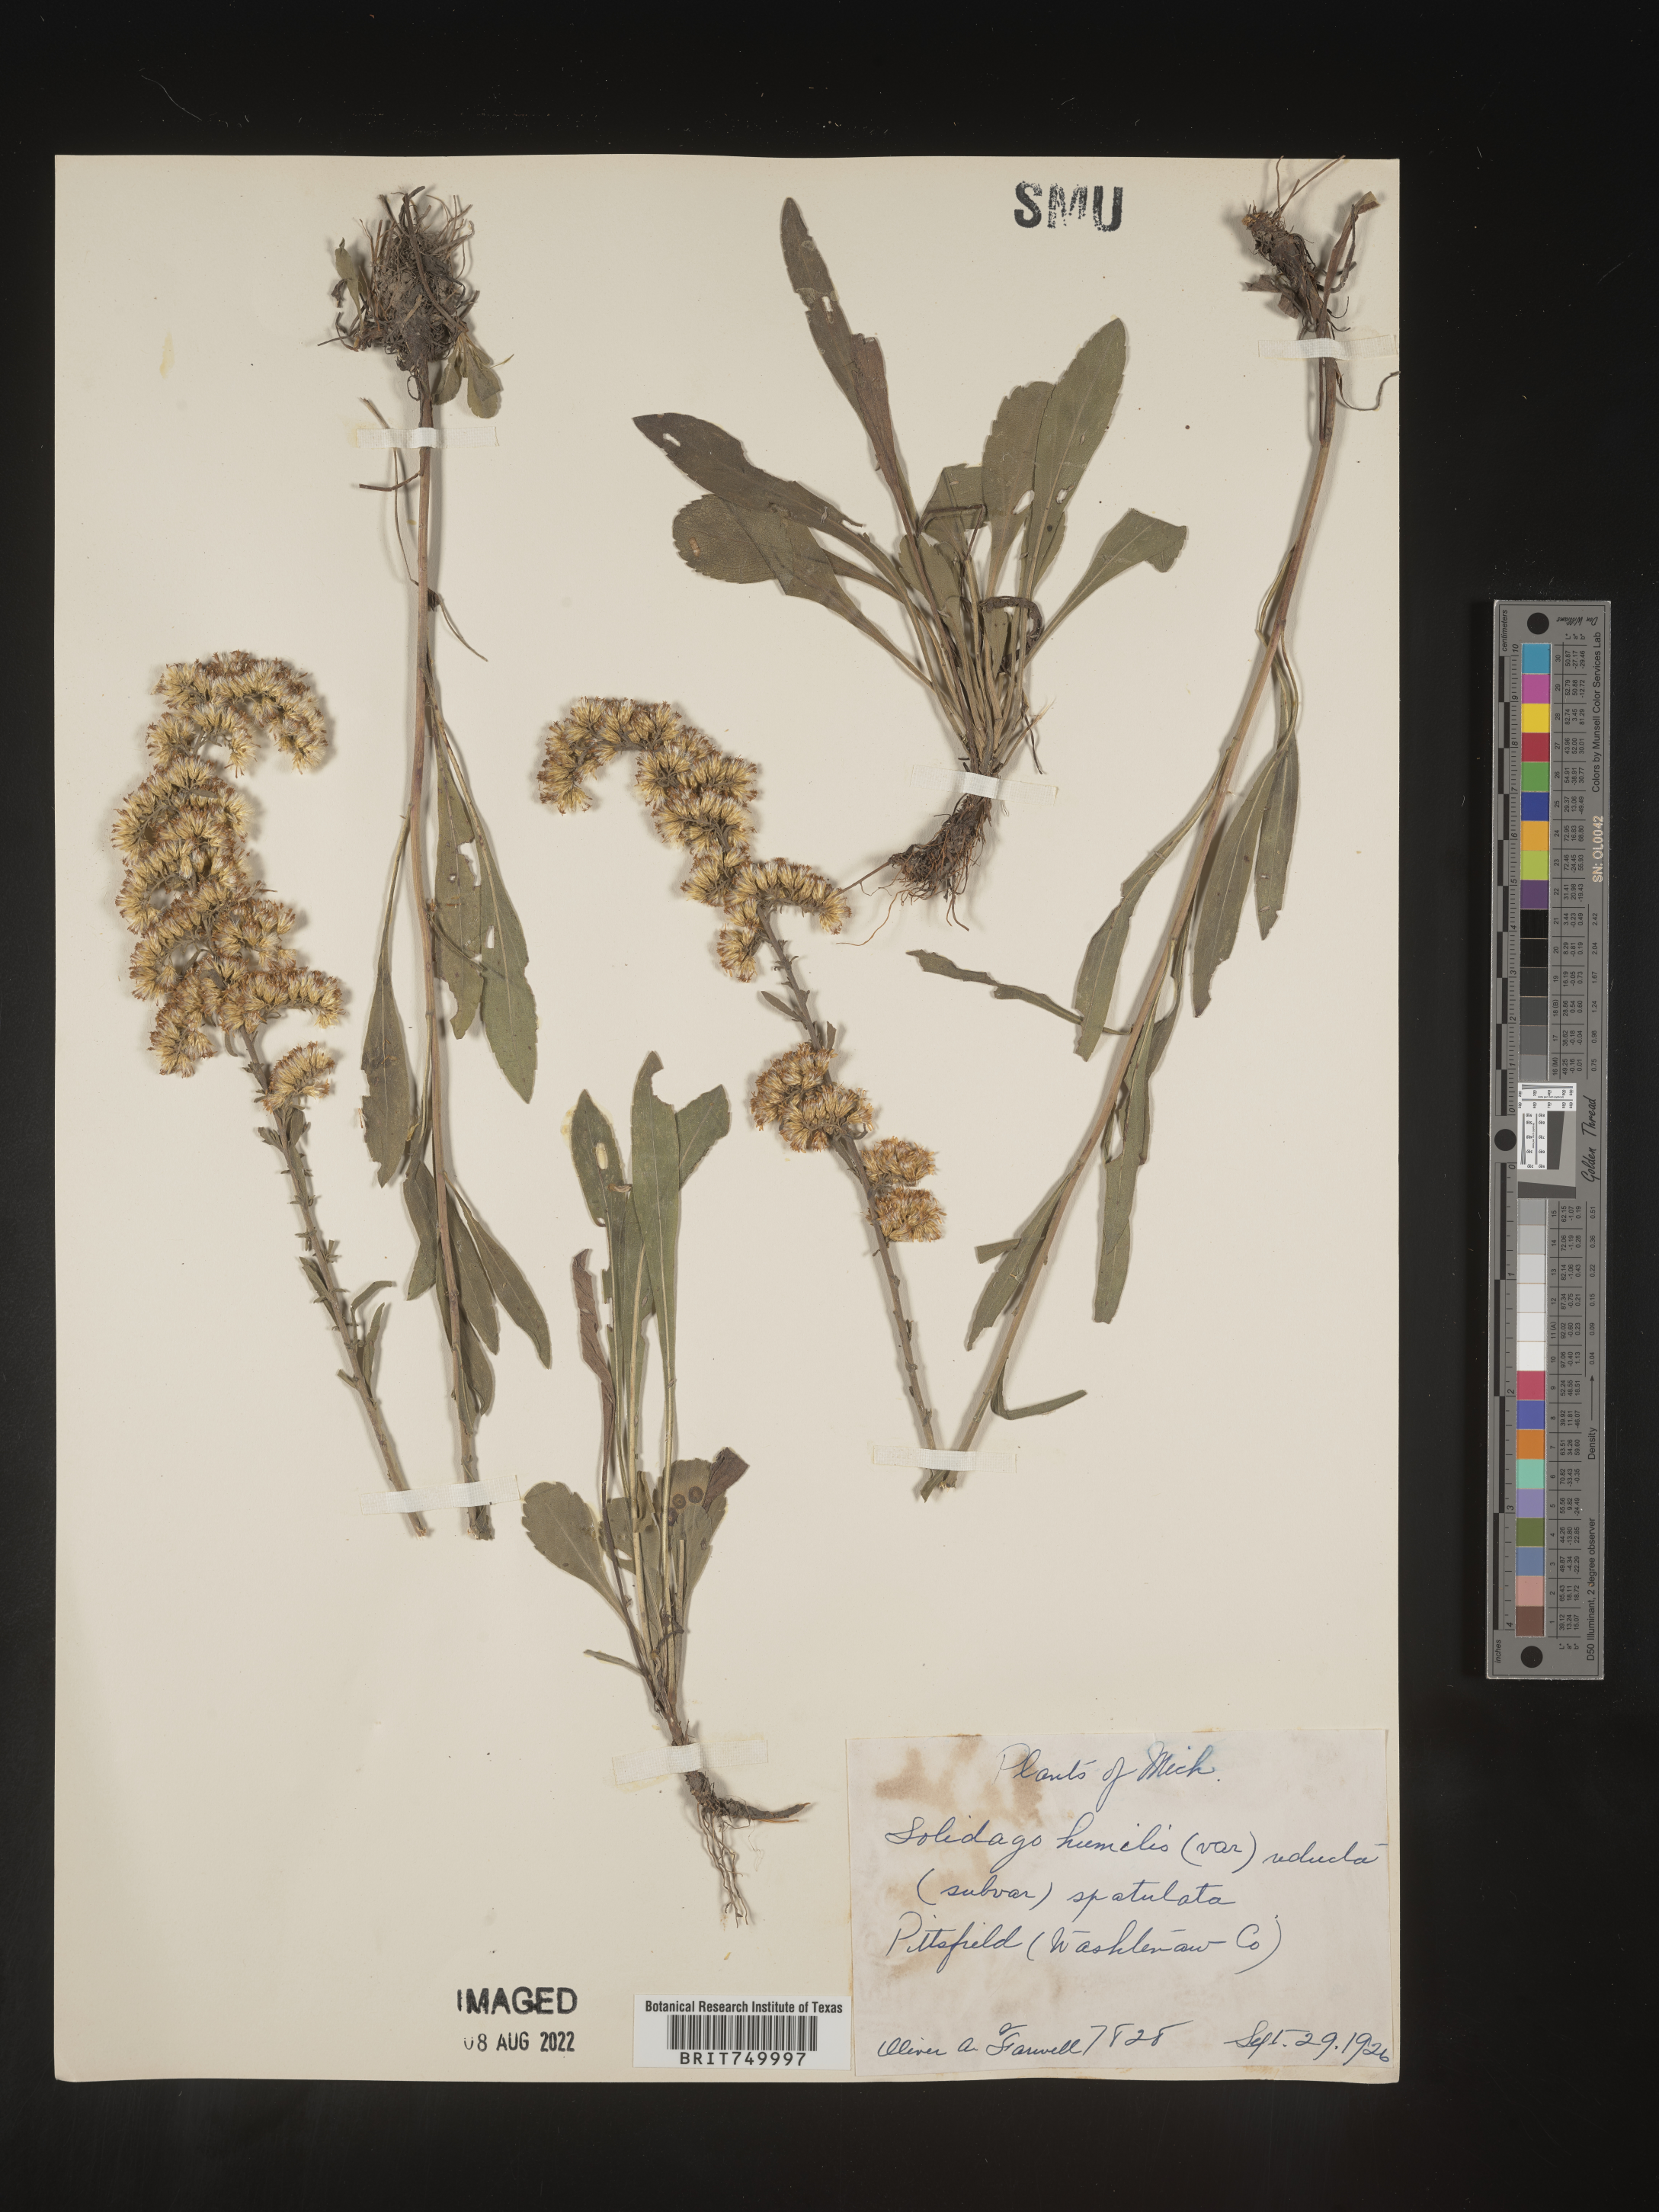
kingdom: Plantae
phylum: Tracheophyta
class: Magnoliopsida
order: Asterales
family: Asteraceae
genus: Solidago
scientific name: Solidago
